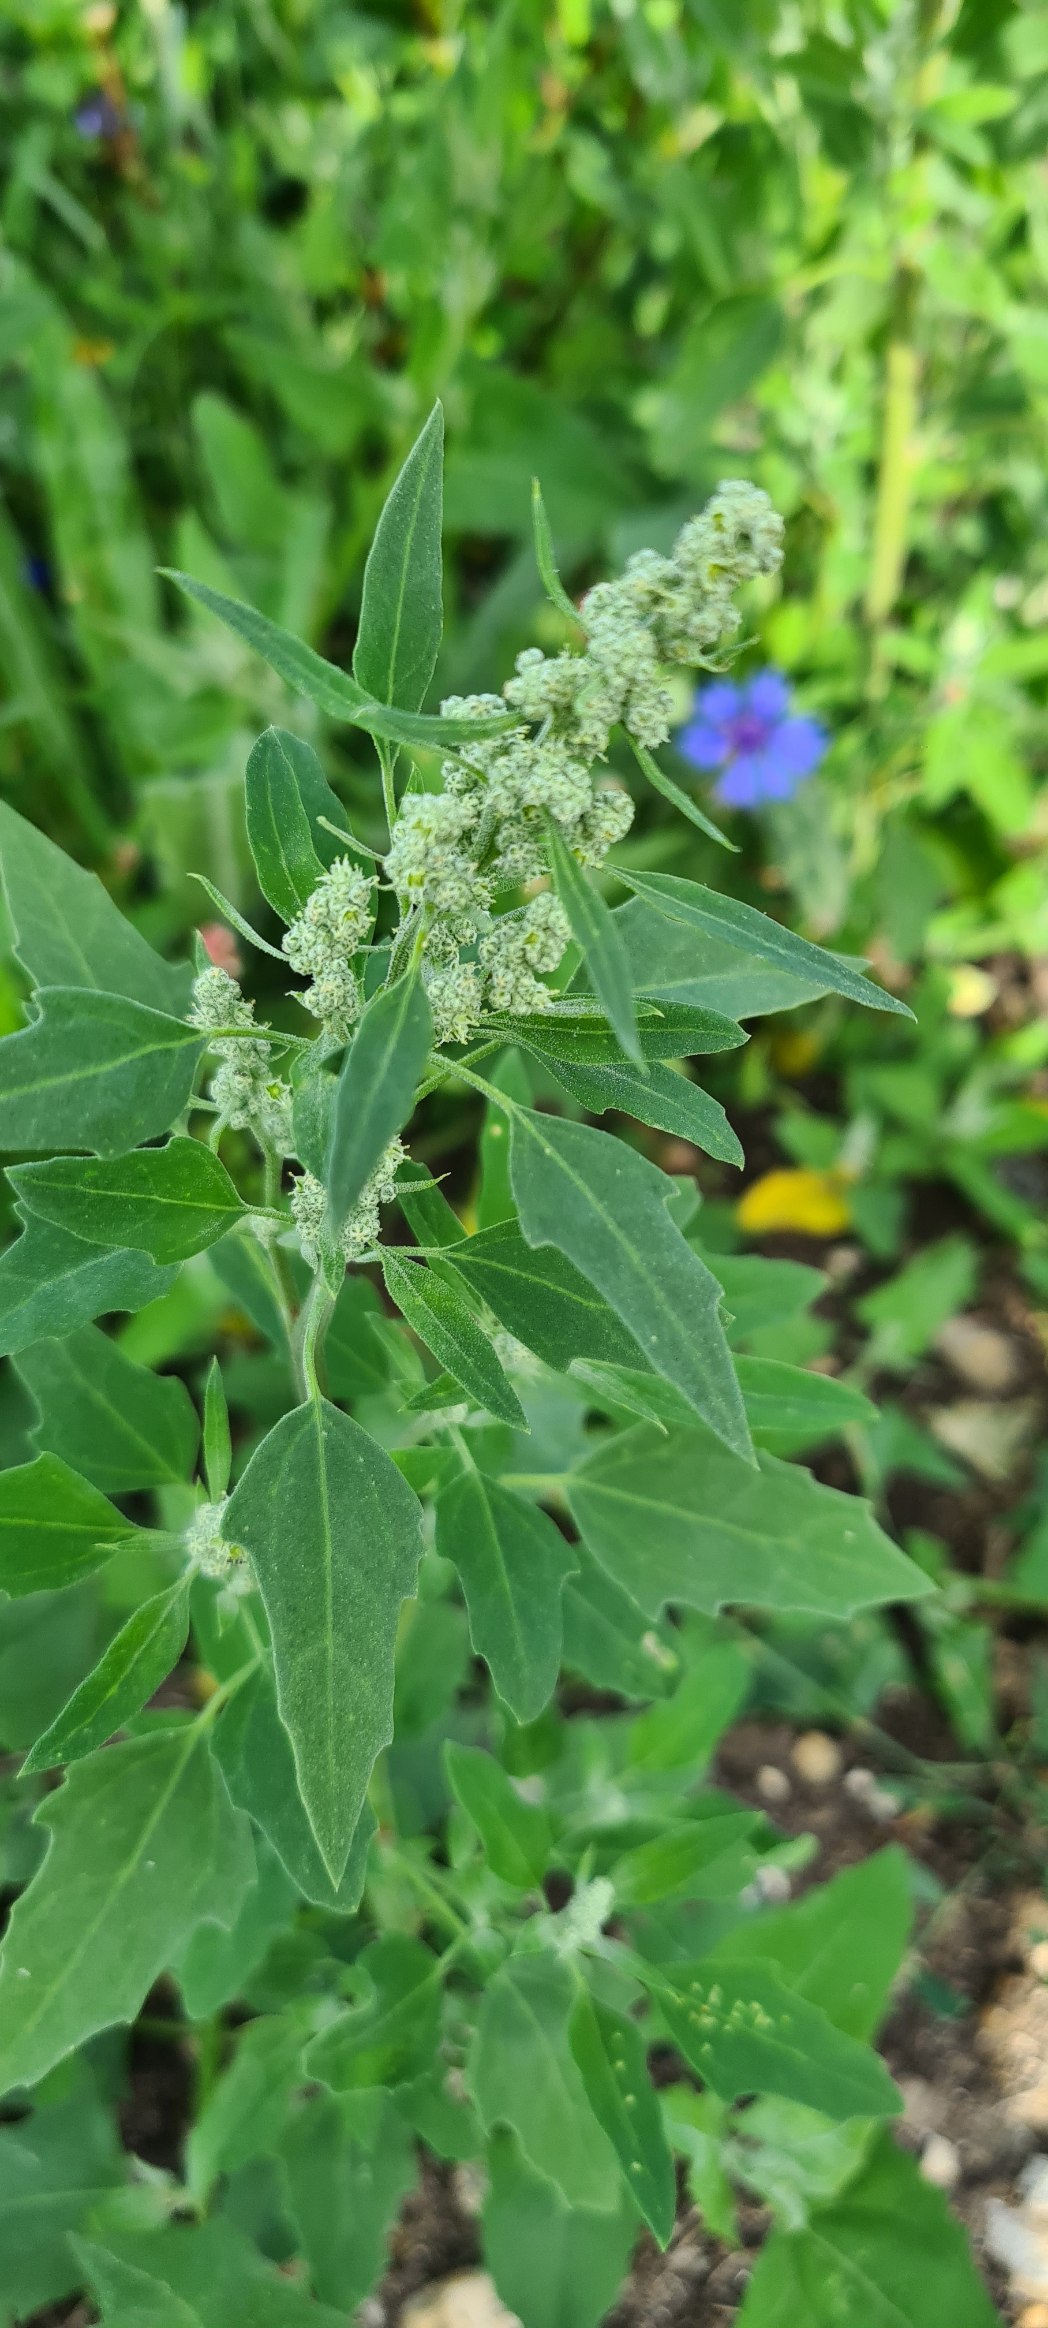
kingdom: Plantae
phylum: Tracheophyta
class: Magnoliopsida
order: Caryophyllales
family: Amaranthaceae
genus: Chenopodium
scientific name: Chenopodium album
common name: Hvidmelet gåsefod
